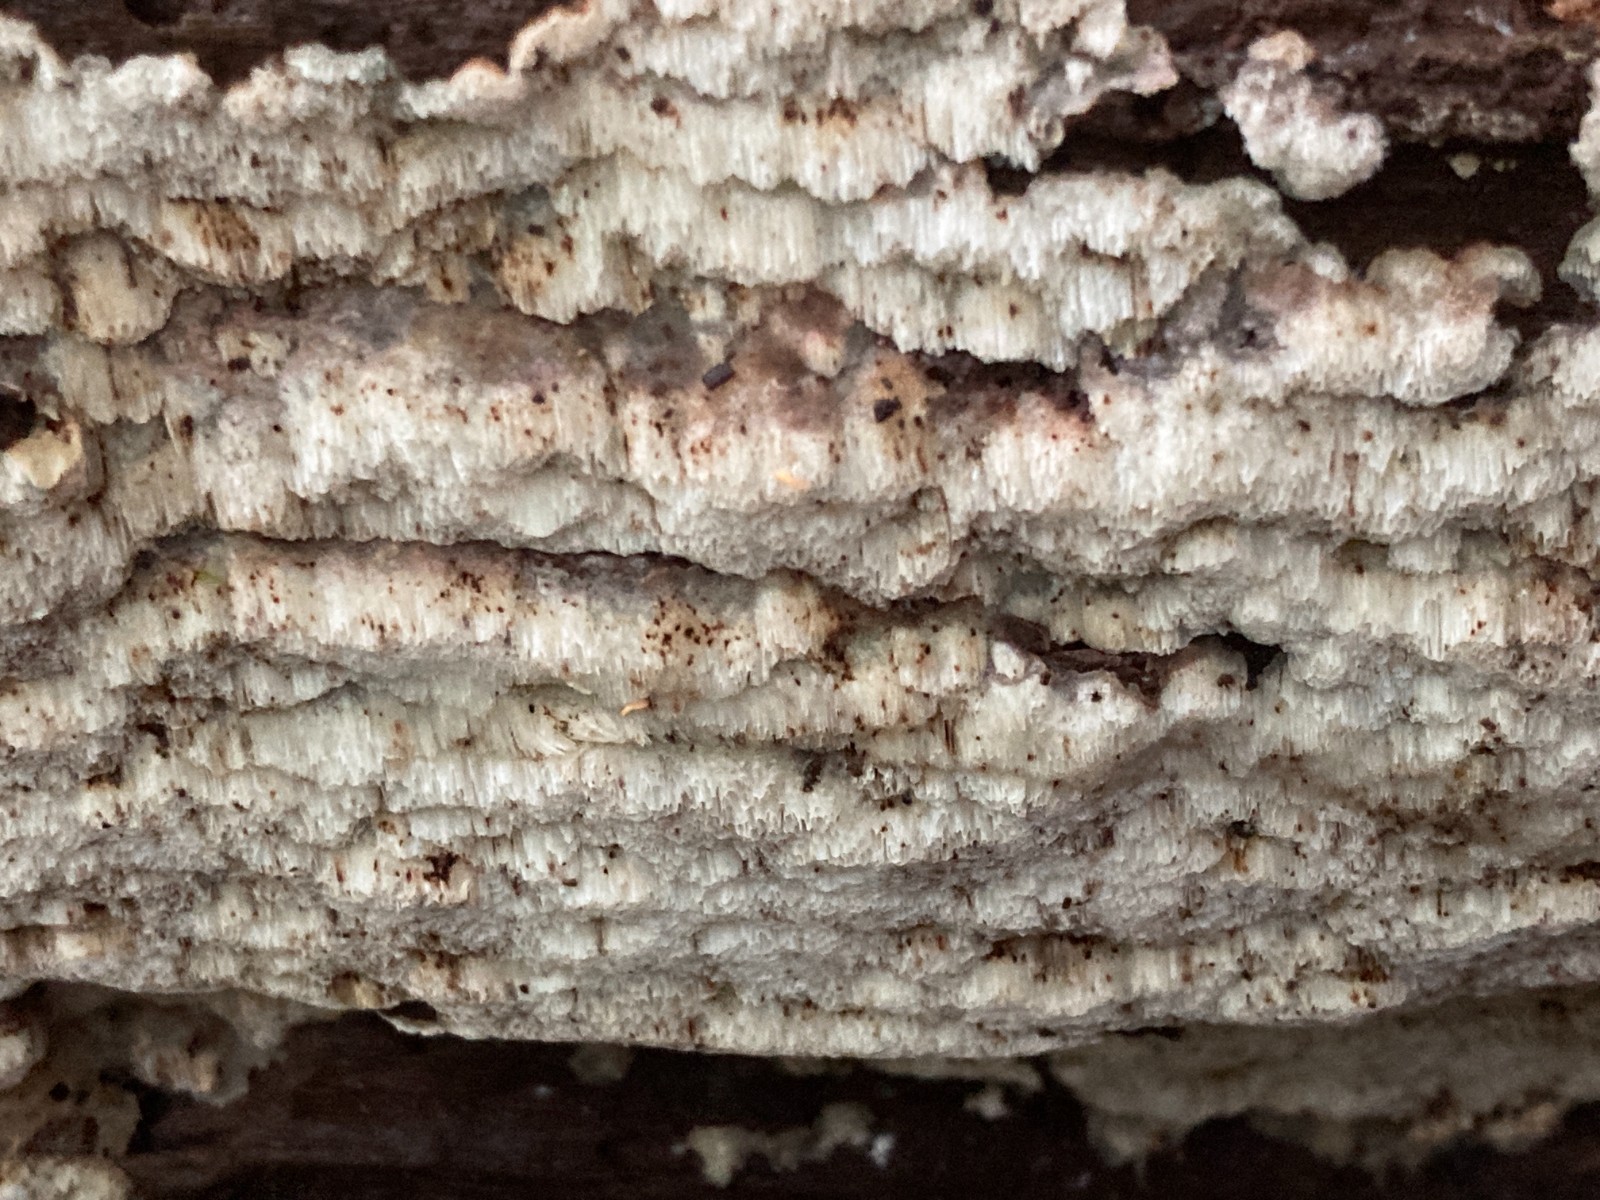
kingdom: Fungi
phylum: Basidiomycota
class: Agaricomycetes
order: Polyporales
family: Meripilaceae
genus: Rigidoporus
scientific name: Rigidoporus sanguinolentus
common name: blod-skorpeporesvamp
